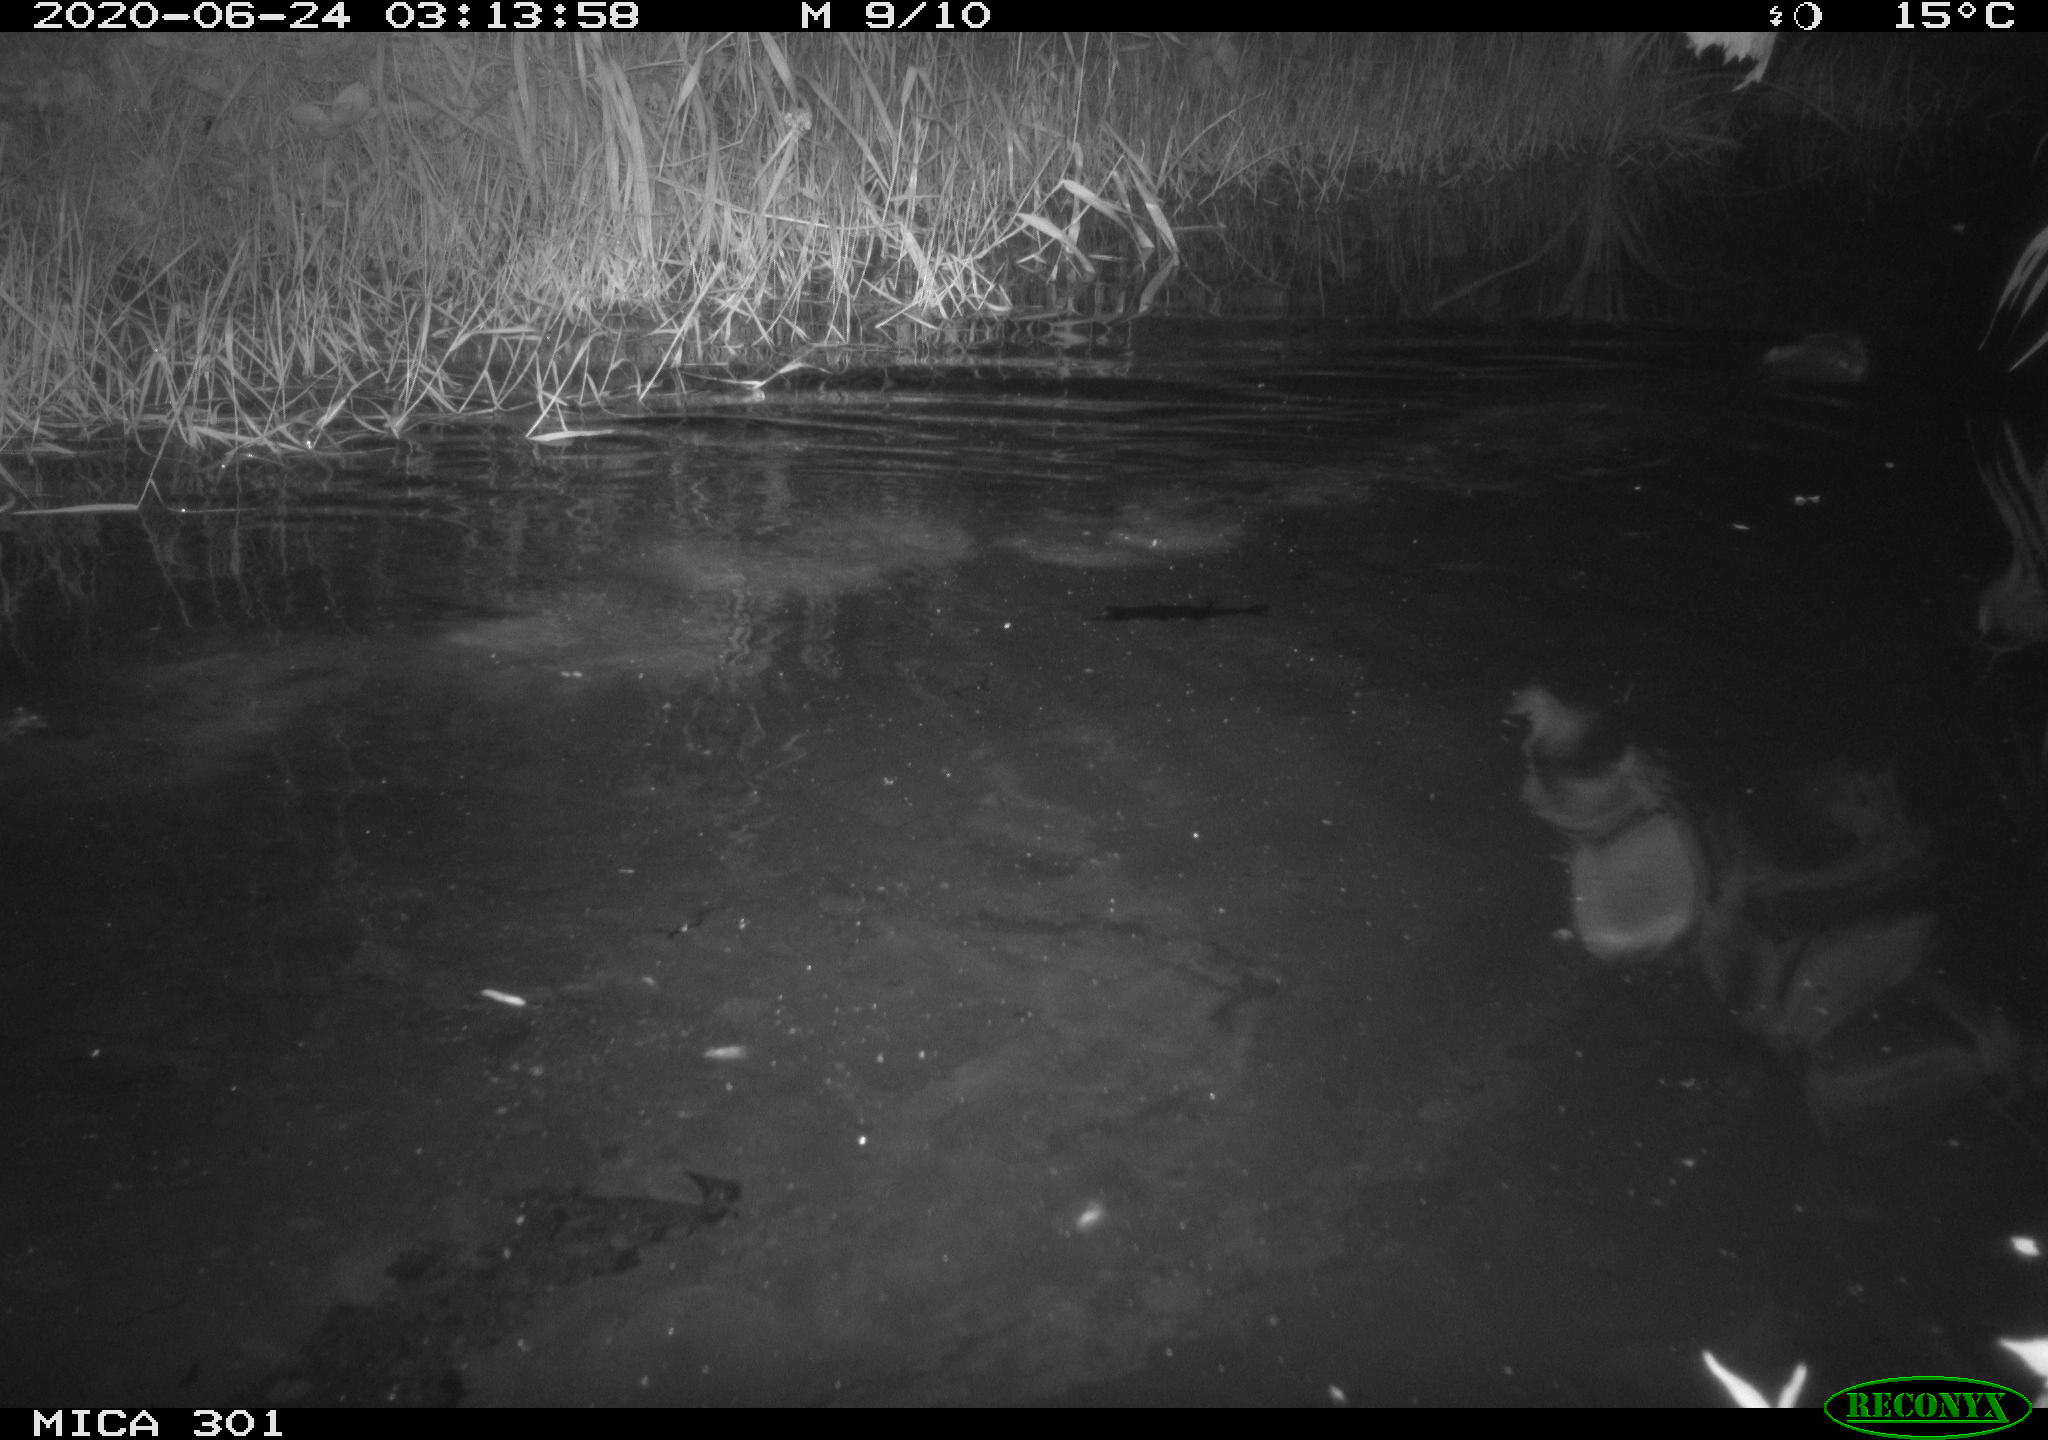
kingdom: Animalia
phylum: Chordata
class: Mammalia
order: Rodentia
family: Castoridae
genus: Castor
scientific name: Castor fiber
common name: Eurasian beaver
